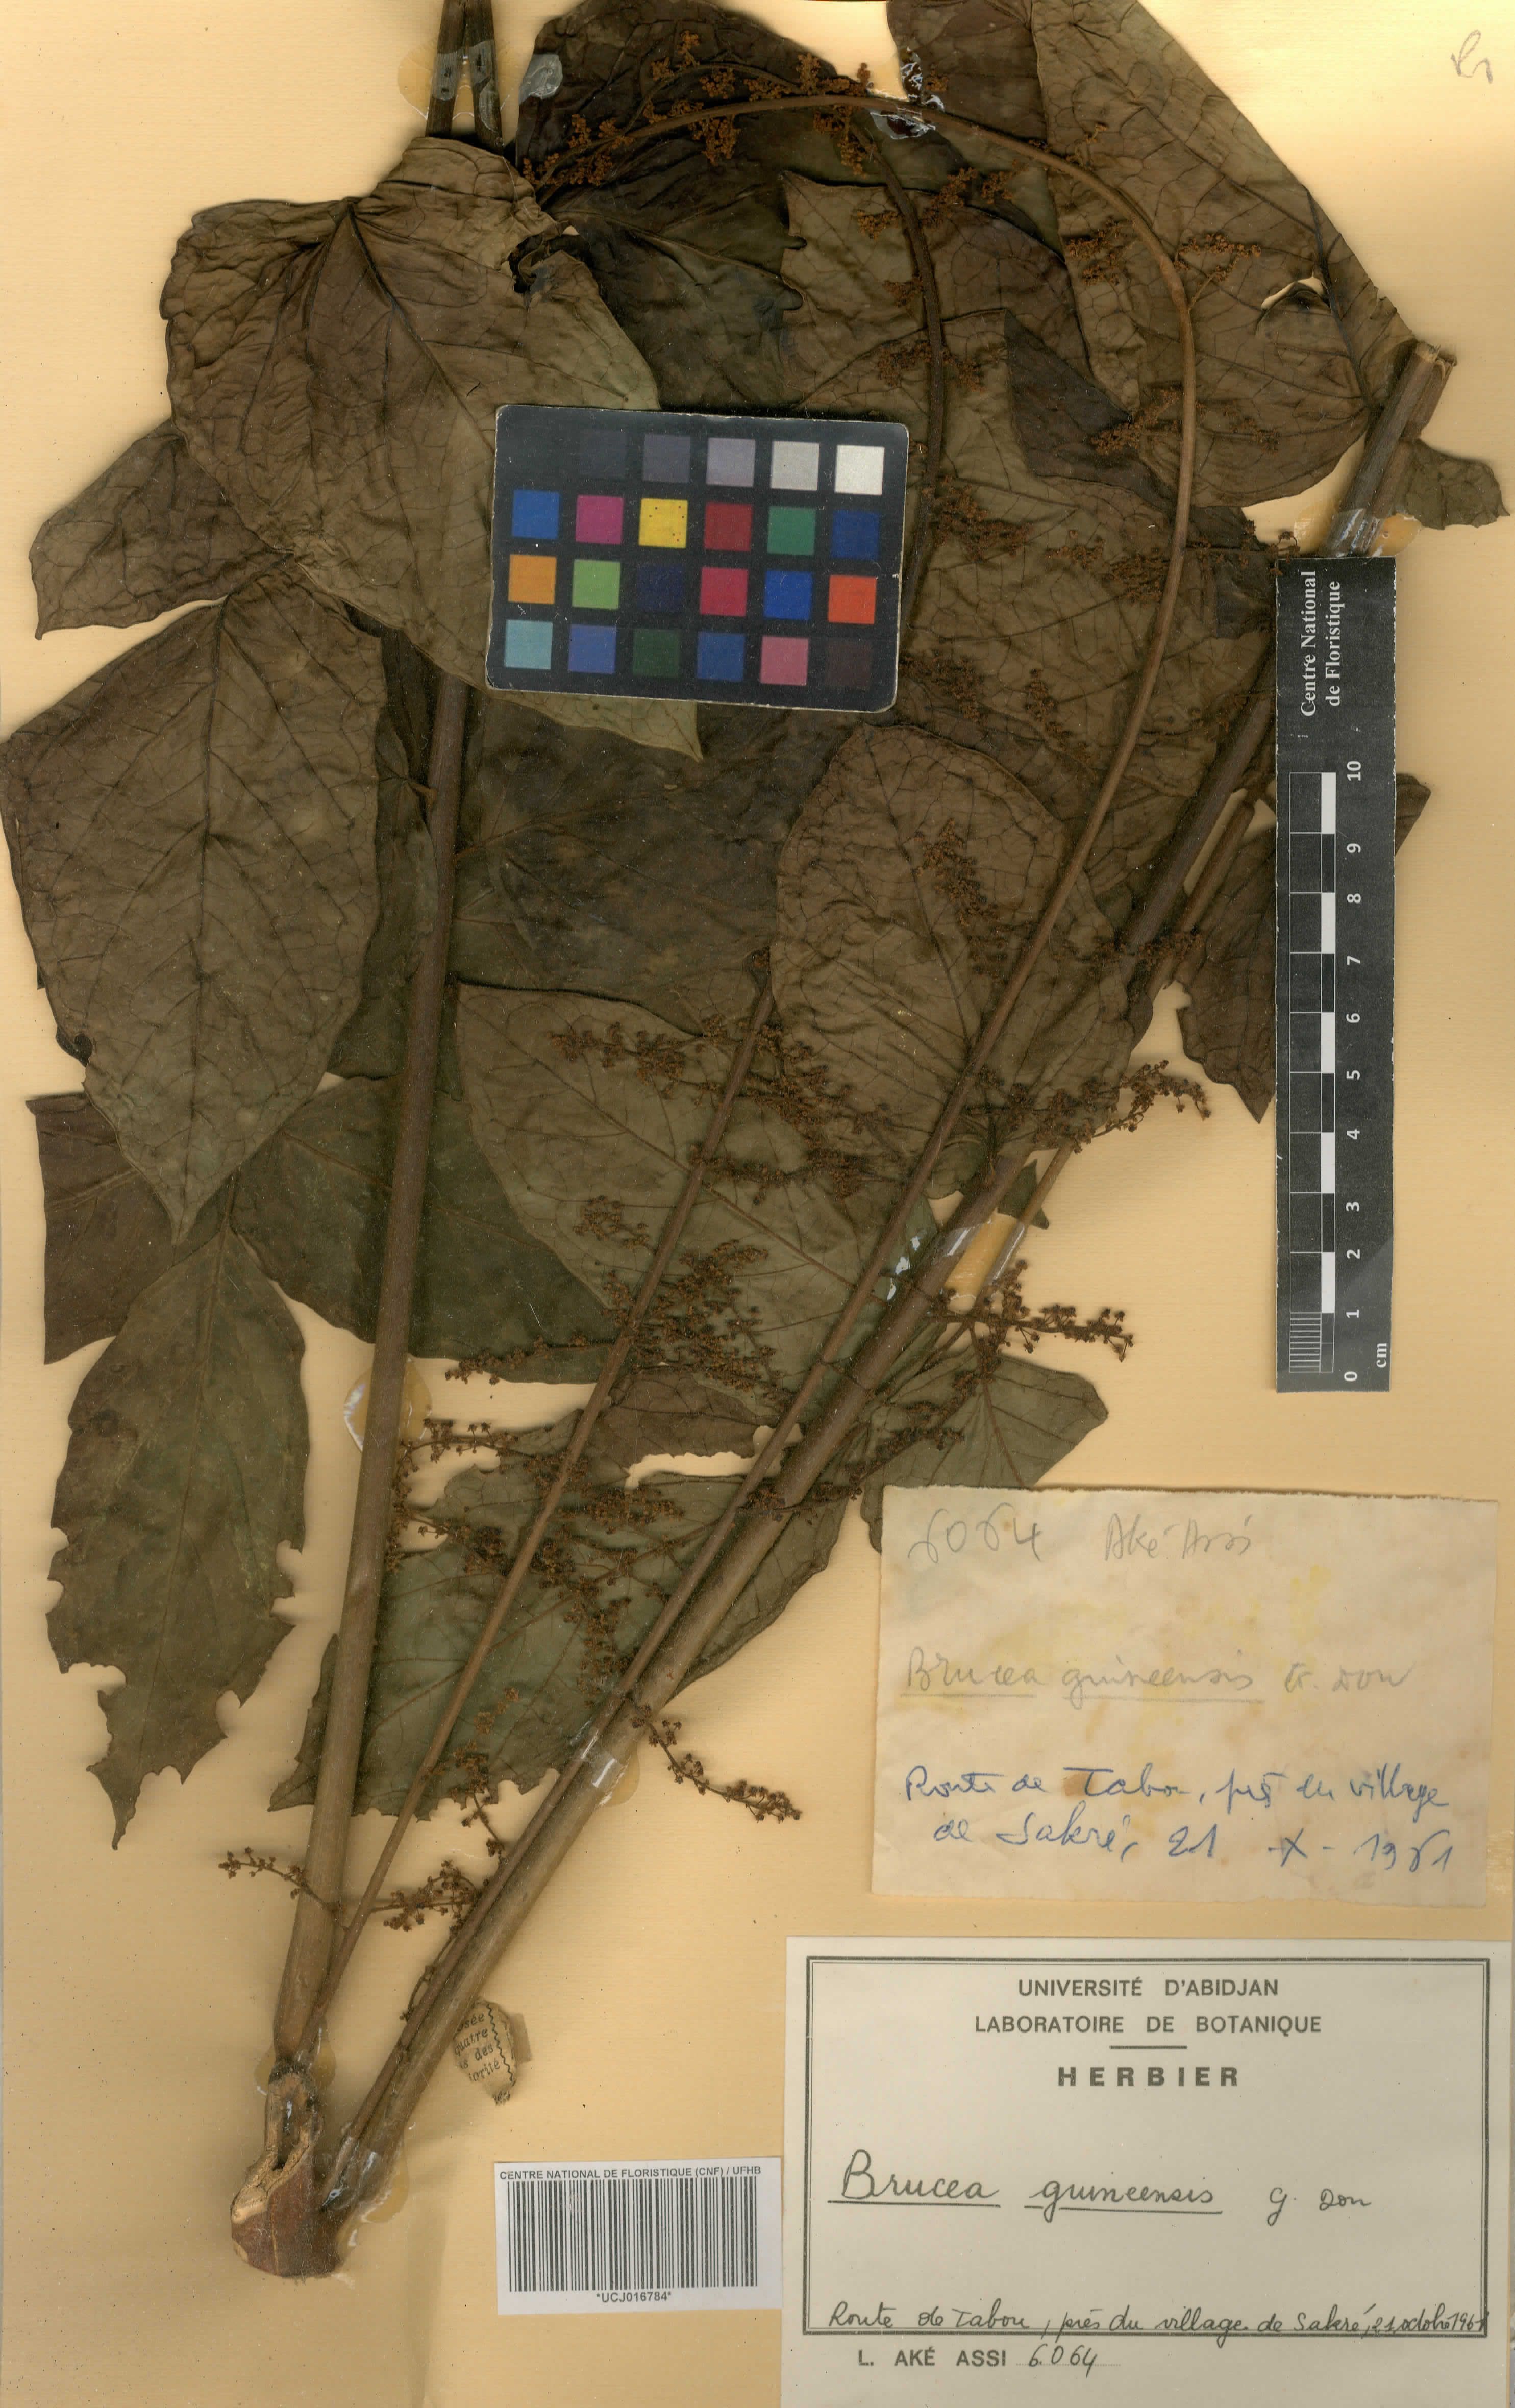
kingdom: Plantae
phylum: Tracheophyta
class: Magnoliopsida
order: Sapindales
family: Anacardiaceae
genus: Trichoscypha
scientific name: Trichoscypha smythei
